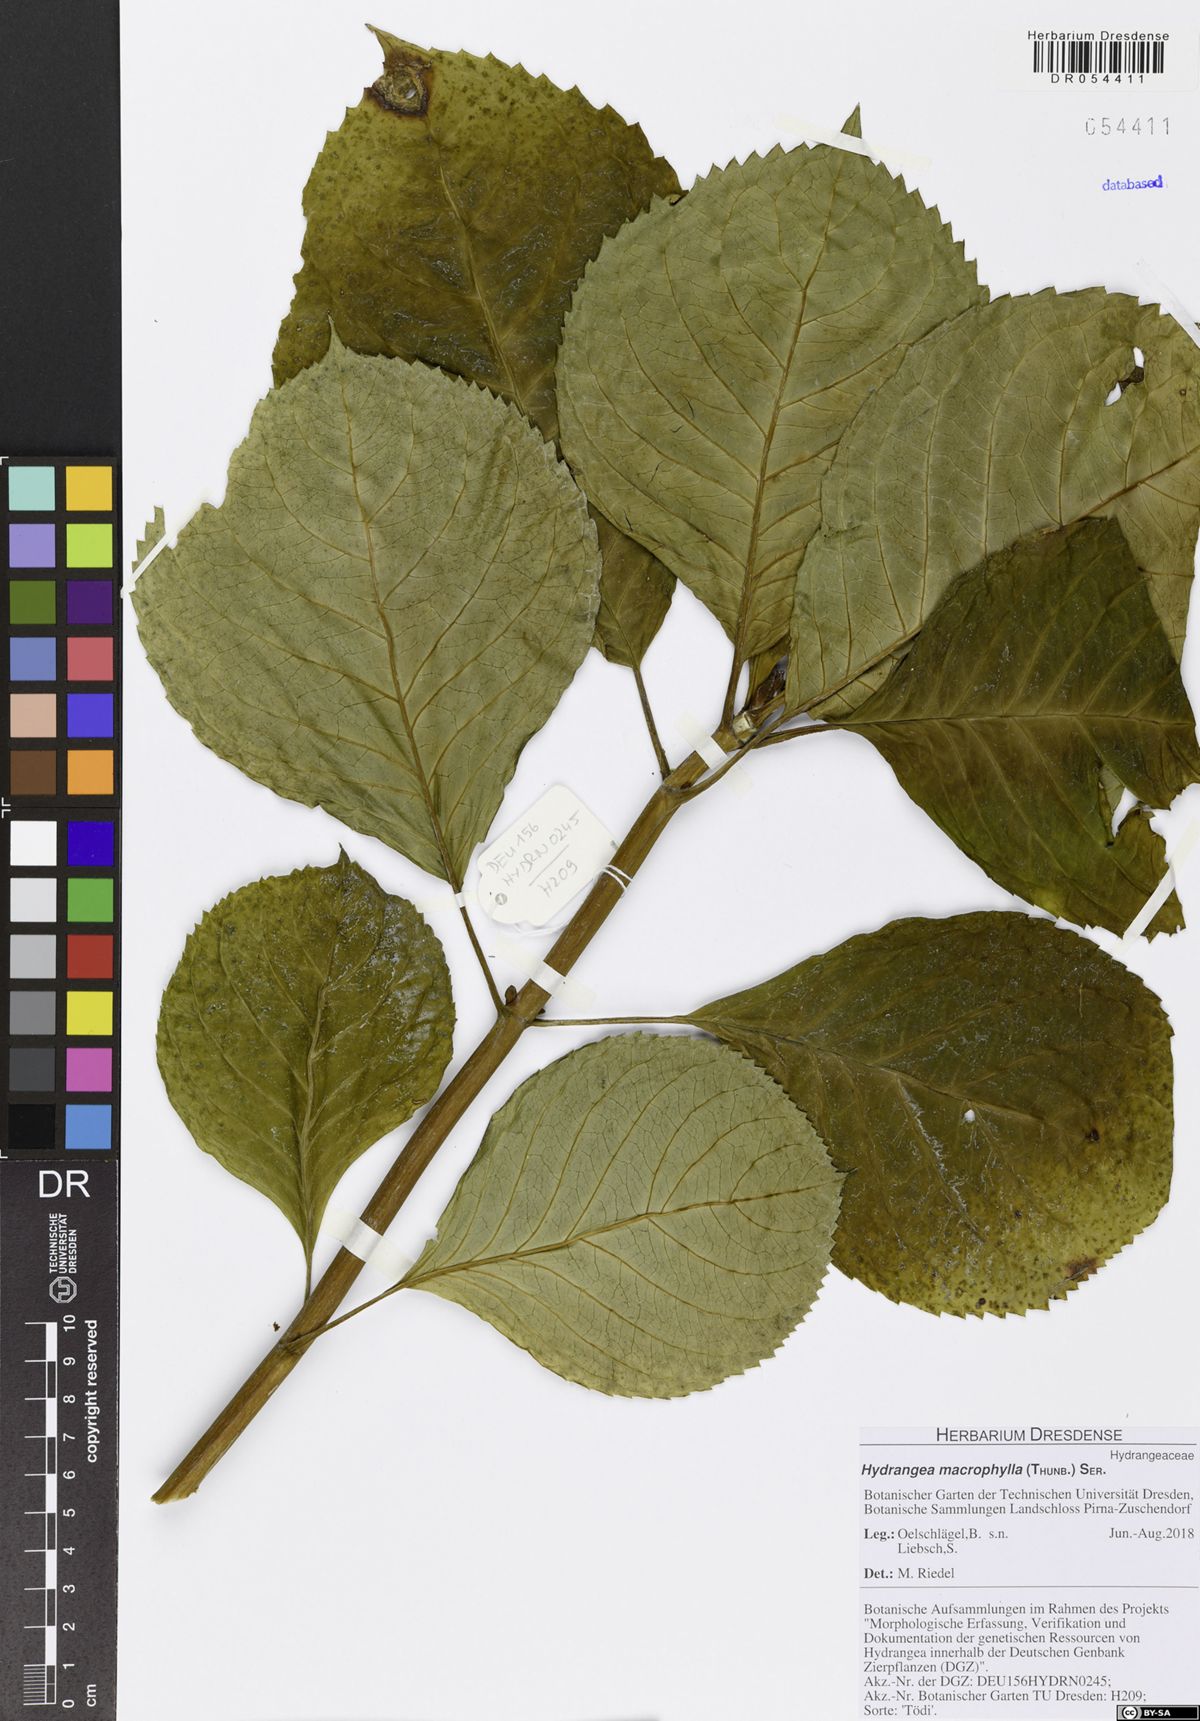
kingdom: Plantae
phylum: Tracheophyta
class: Magnoliopsida
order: Cornales
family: Hydrangeaceae
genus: Hydrangea
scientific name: Hydrangea macrophylla
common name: Hydrangea
